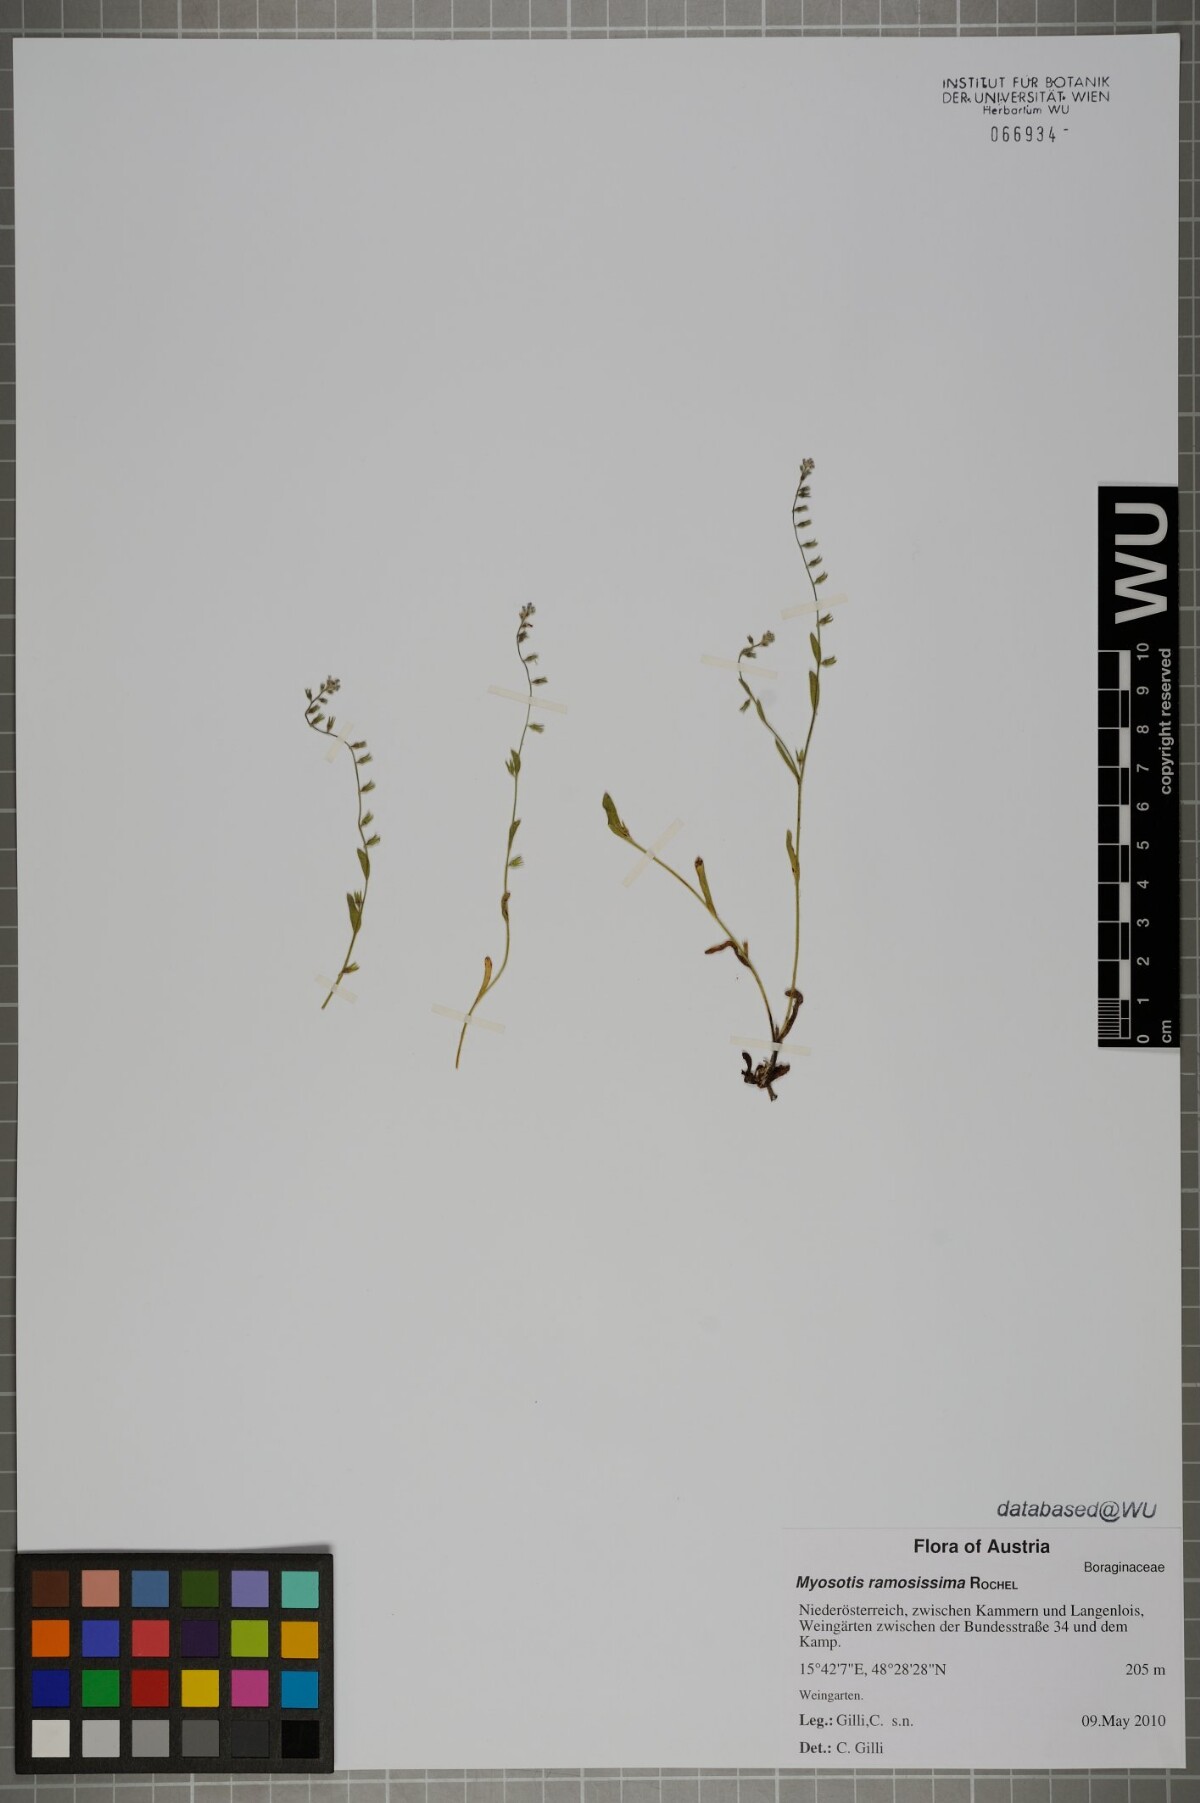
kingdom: Plantae
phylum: Tracheophyta
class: Magnoliopsida
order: Boraginales
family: Boraginaceae
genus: Myosotis
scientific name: Myosotis ramosissima
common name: Early forget-me-not
